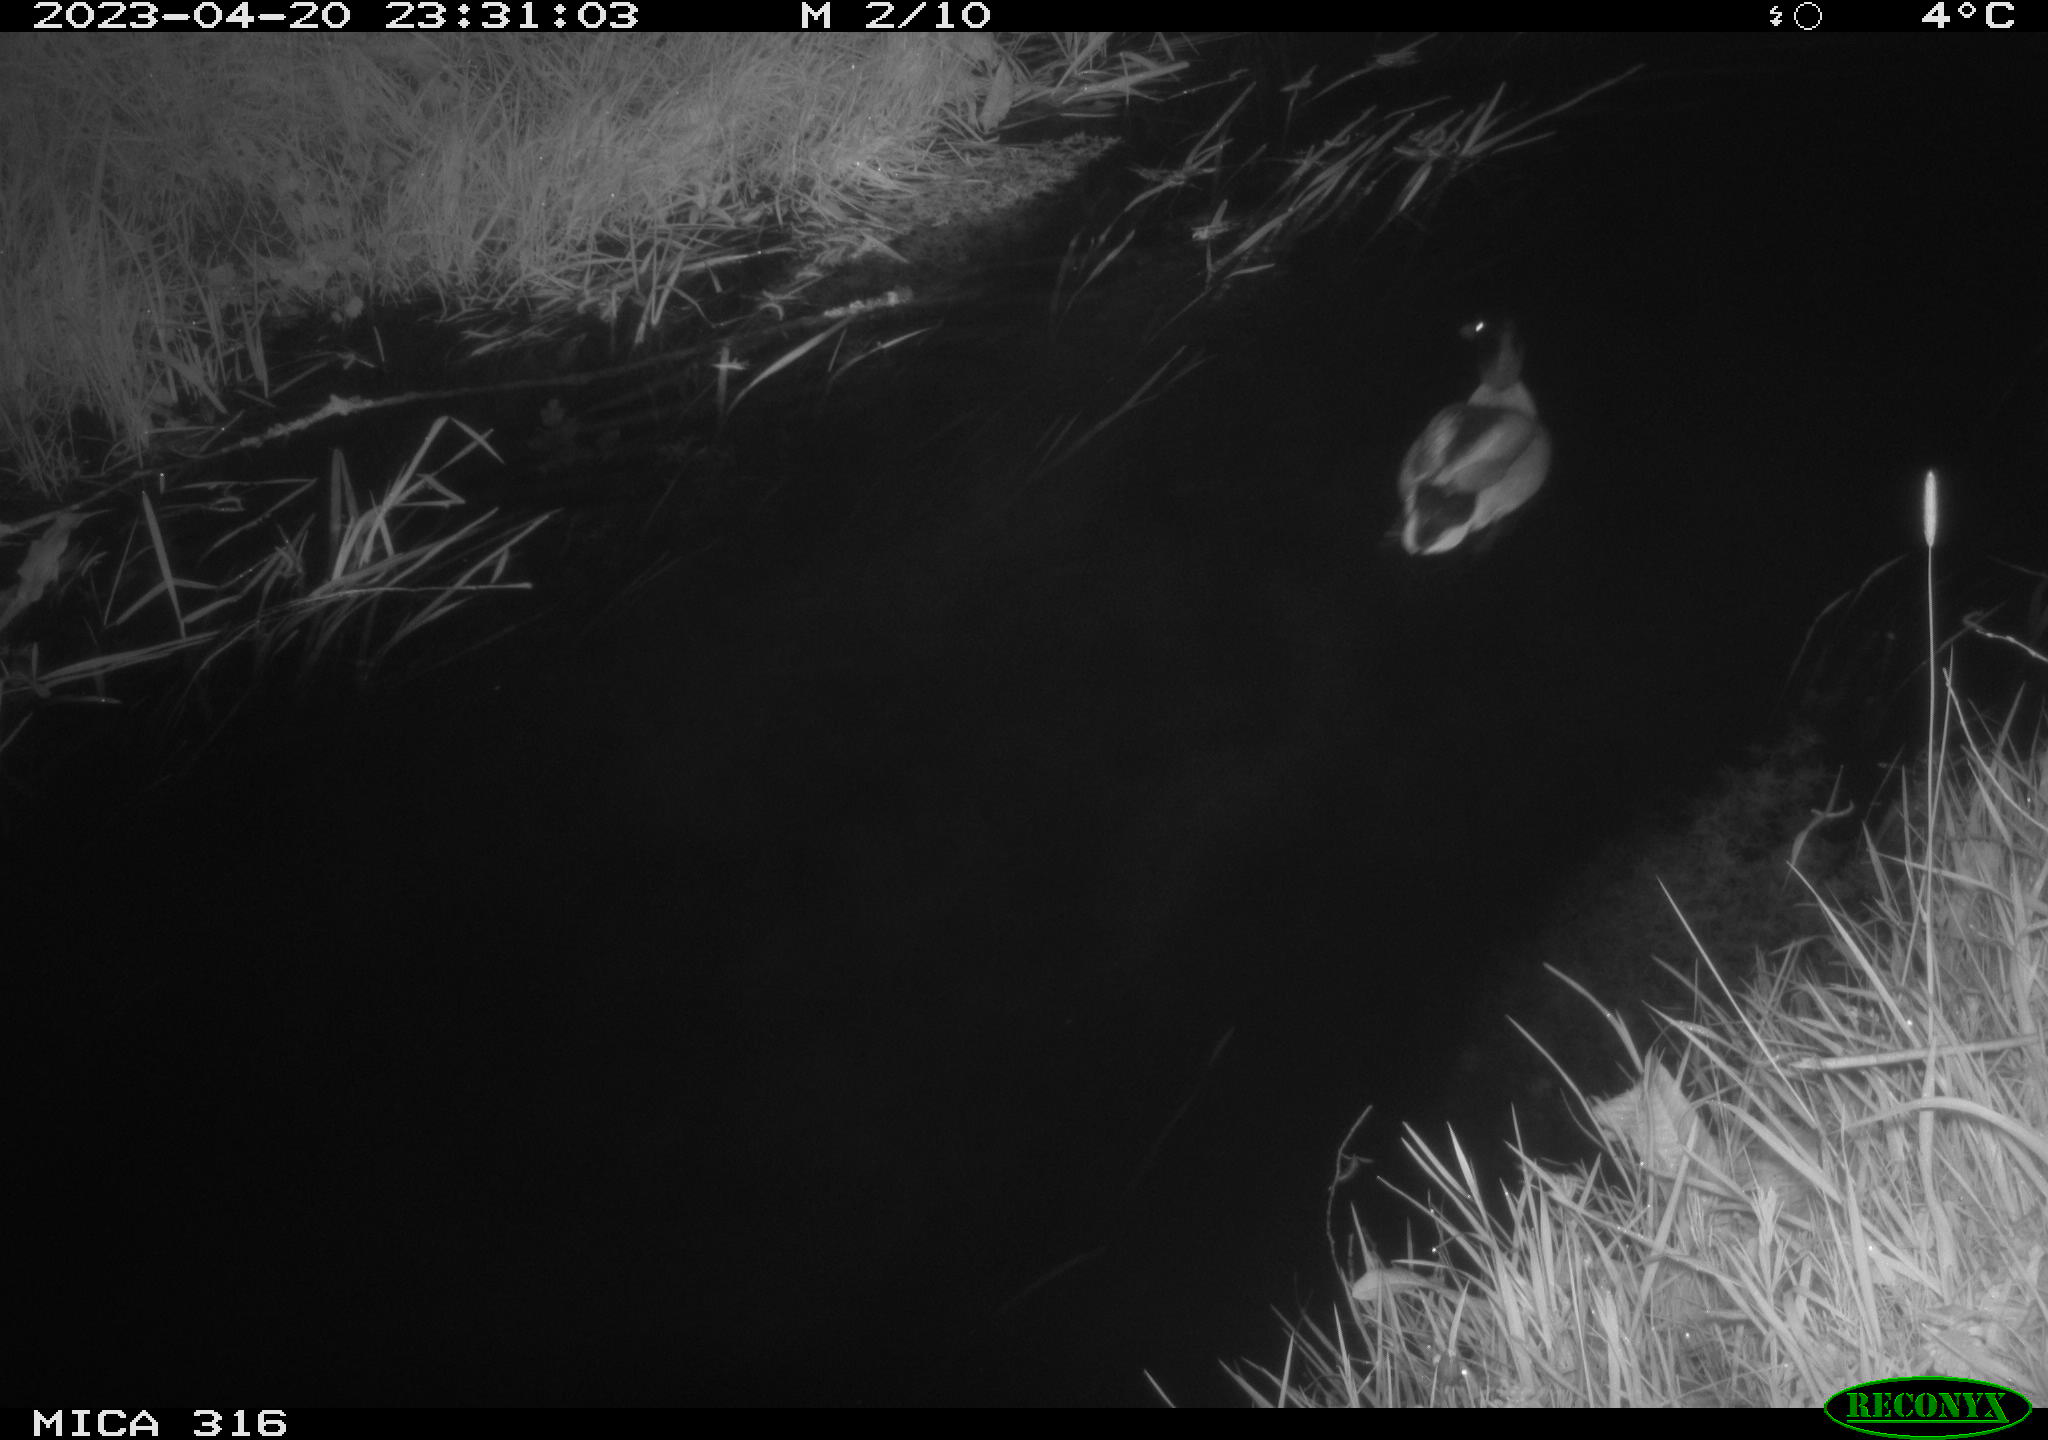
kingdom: Animalia
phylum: Chordata
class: Aves
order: Anseriformes
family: Anatidae
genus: Anas
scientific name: Anas
